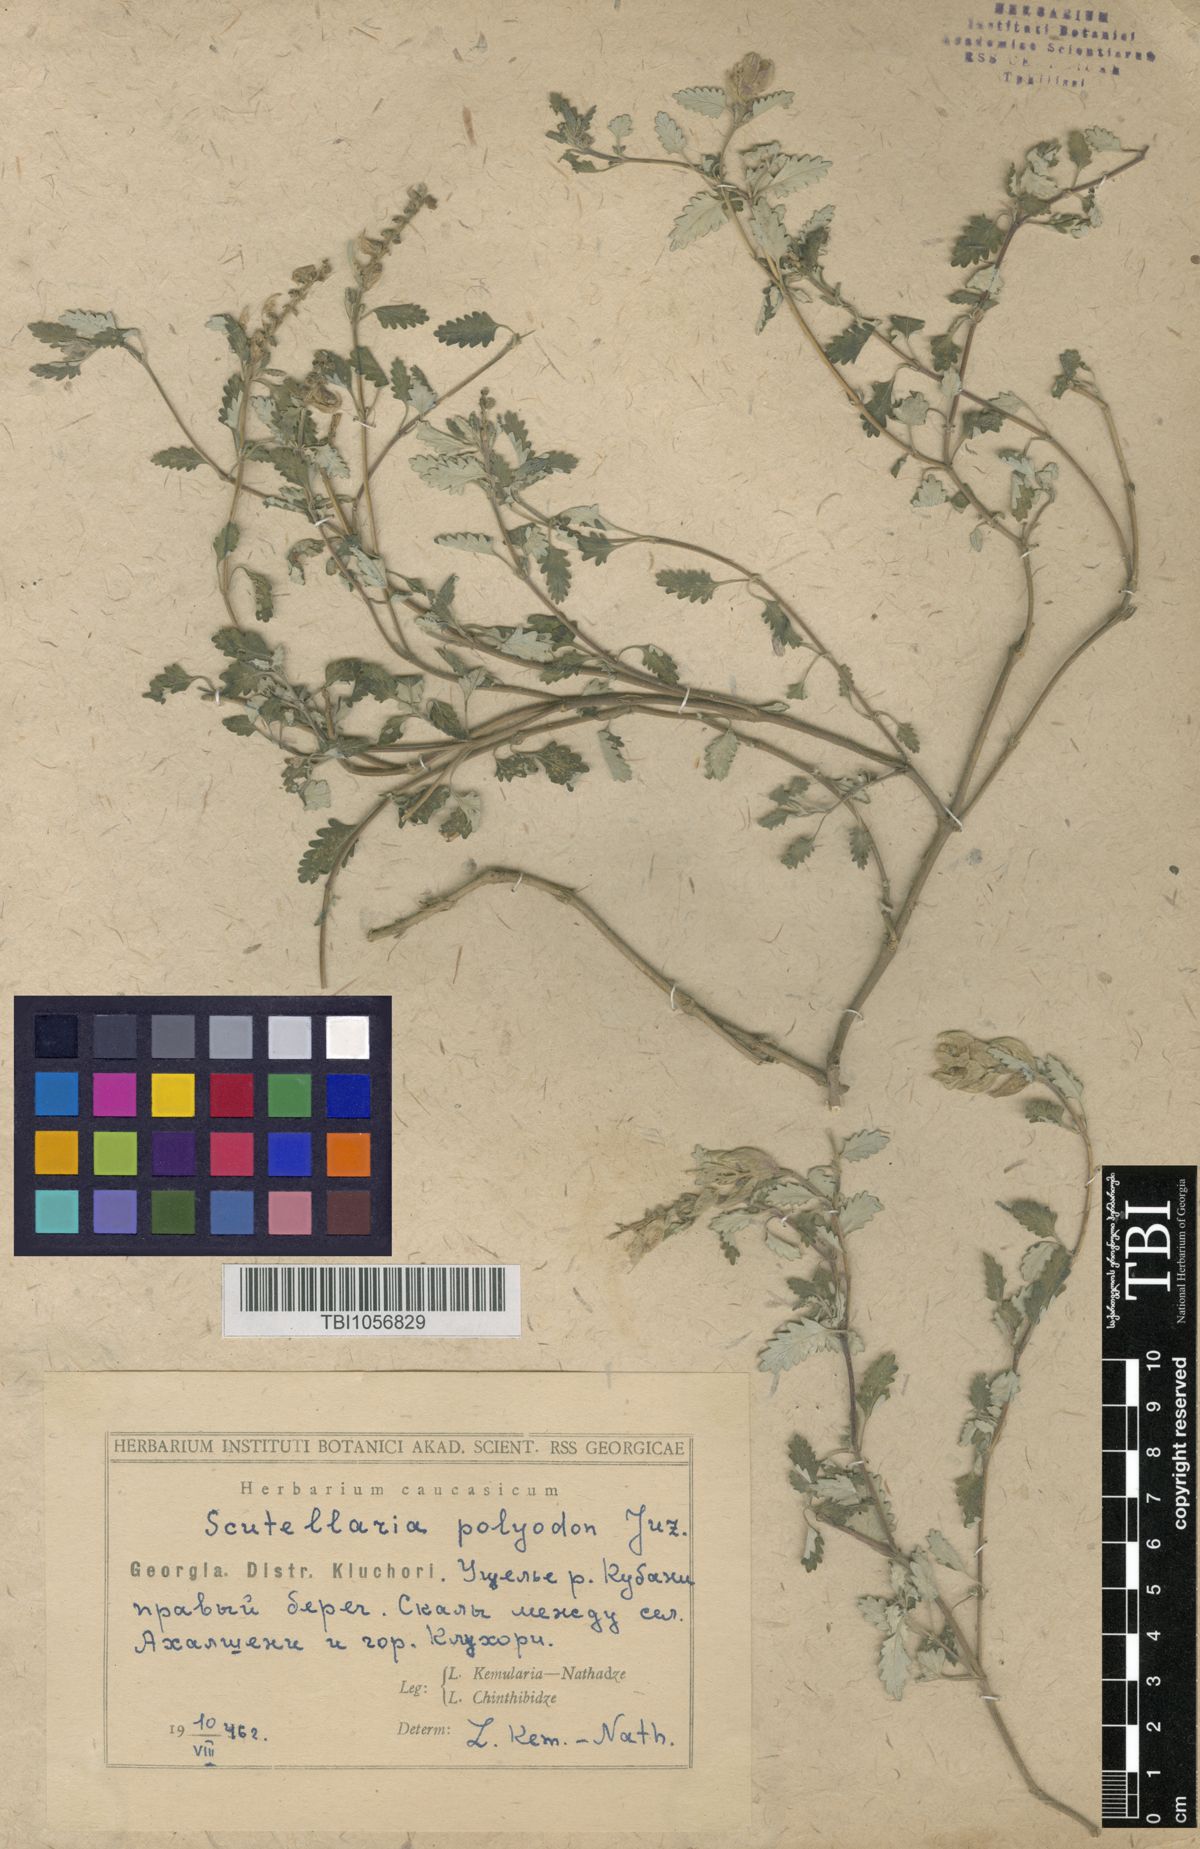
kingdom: Plantae
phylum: Tracheophyta
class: Magnoliopsida
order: Lamiales
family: Lamiaceae
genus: Scutellaria
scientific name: Scutellaria caucasica
